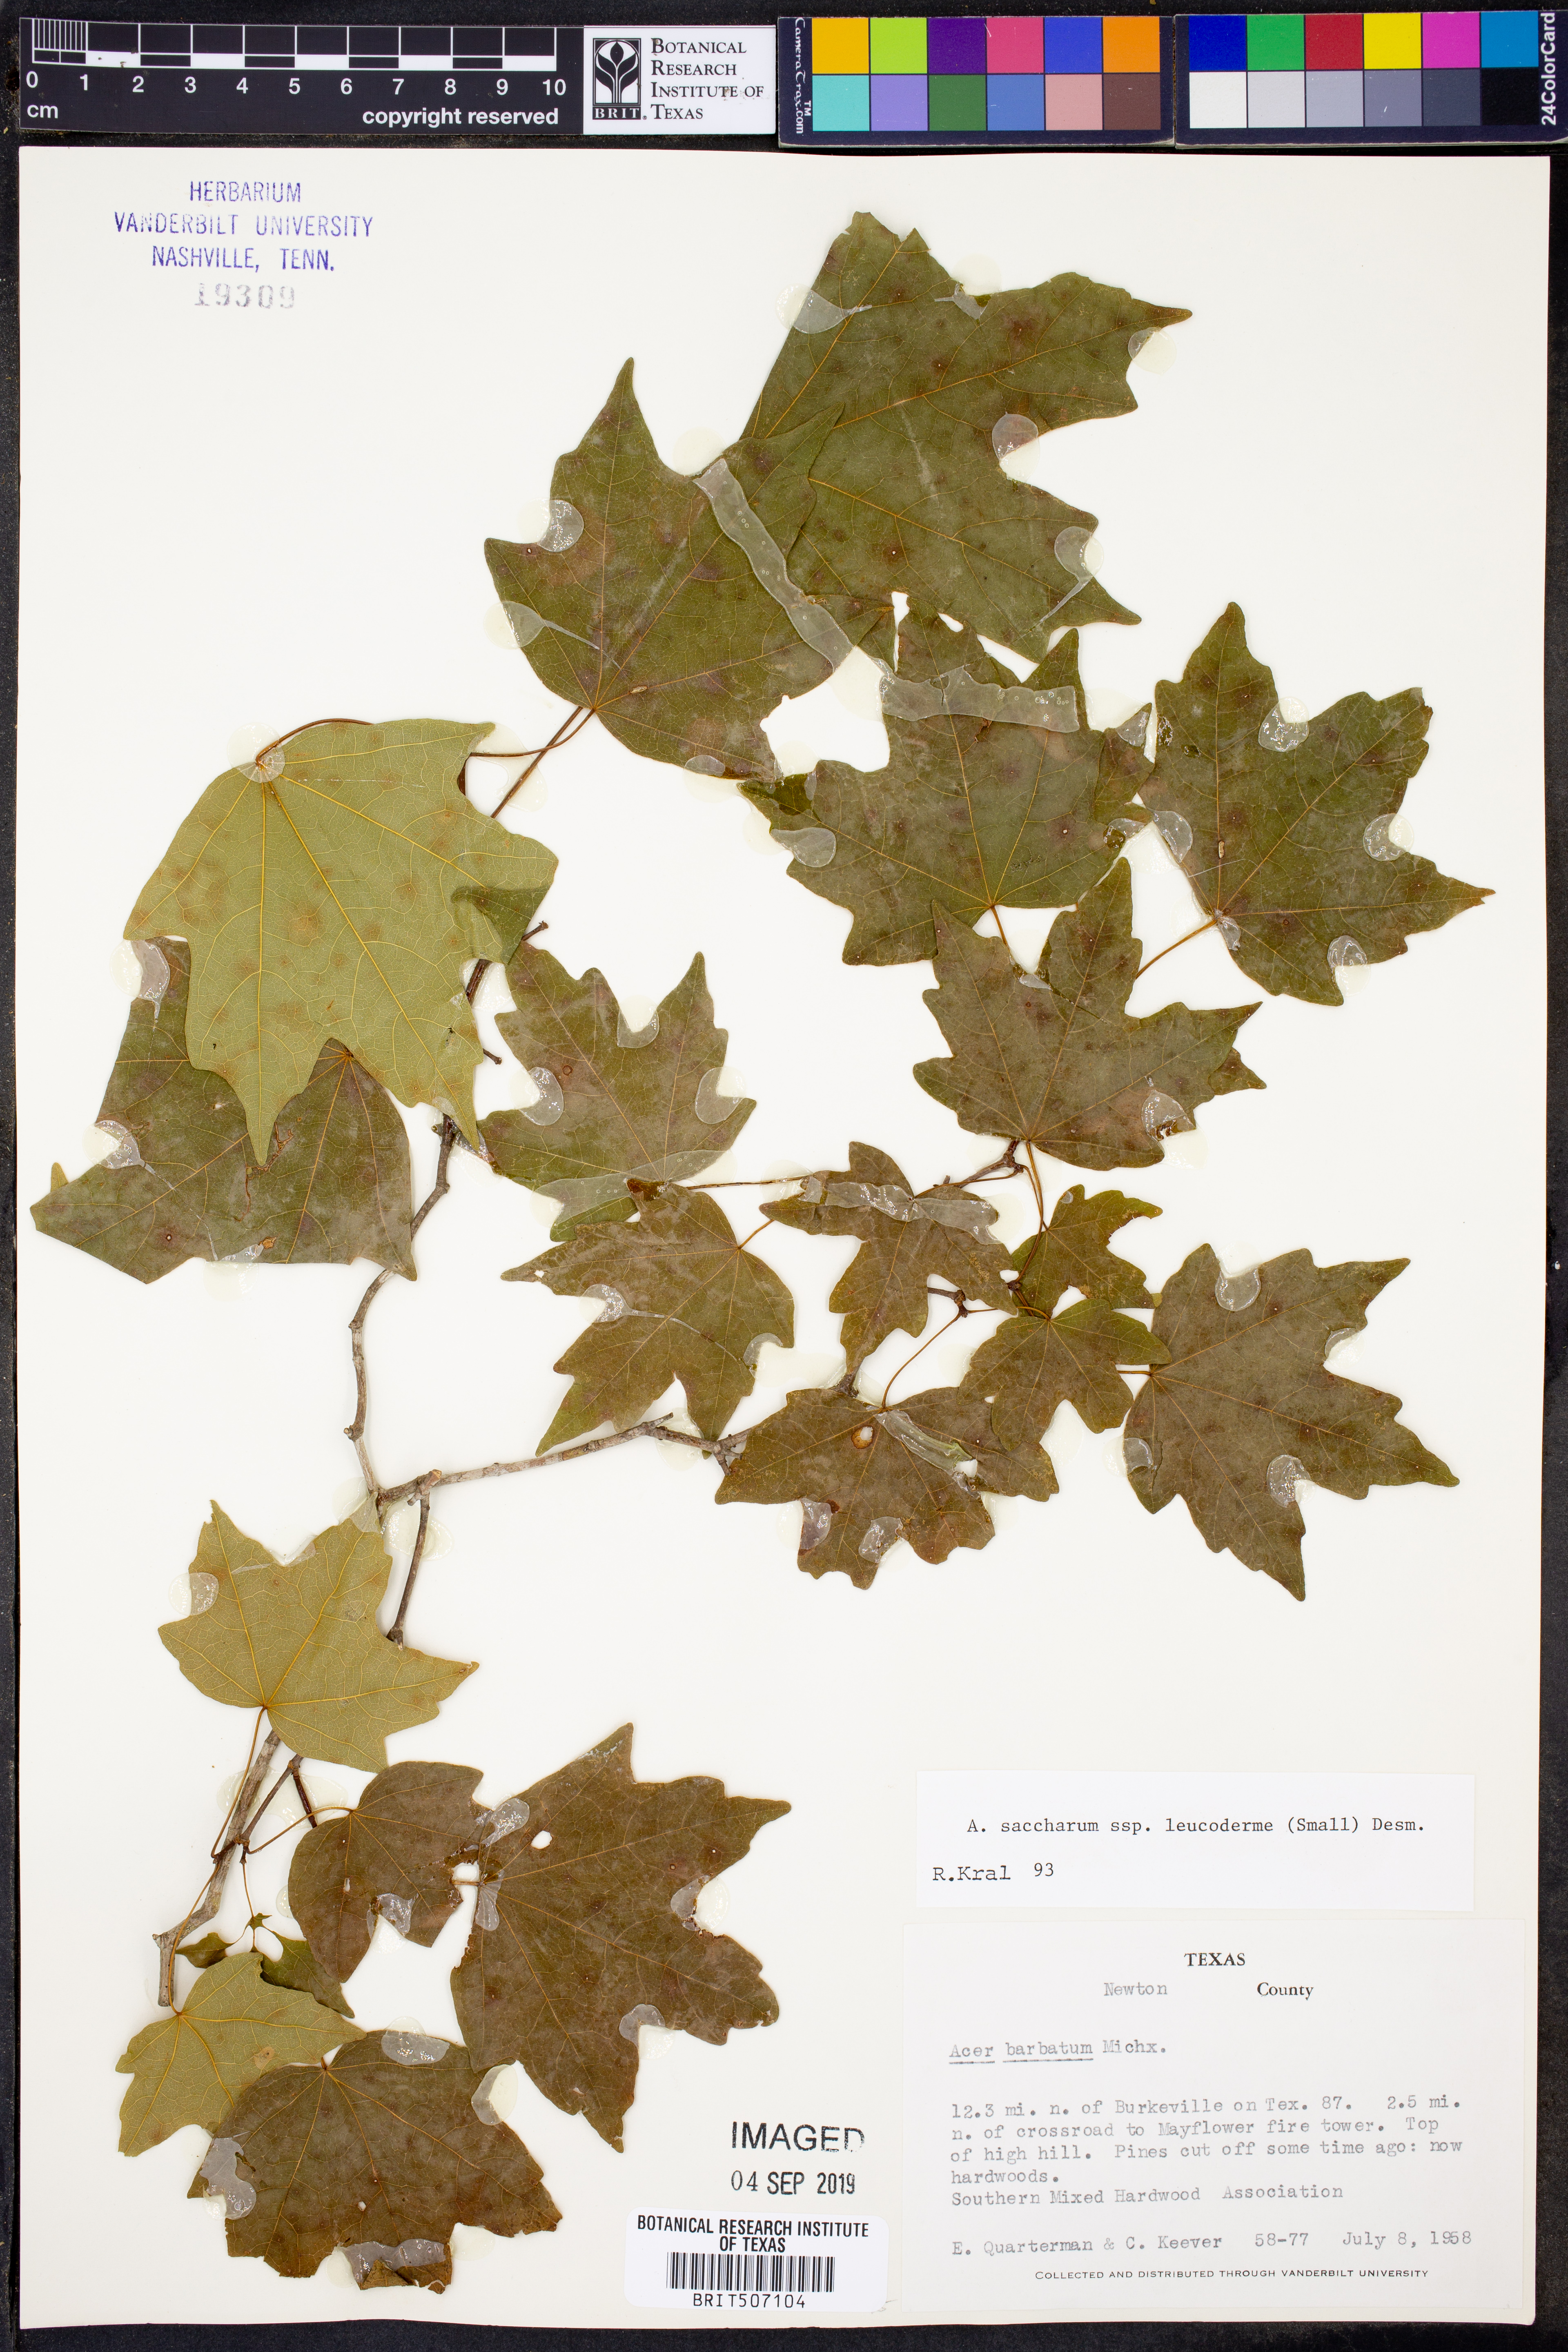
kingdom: Plantae
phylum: Tracheophyta
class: Magnoliopsida
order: Sapindales
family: Sapindaceae
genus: Acer
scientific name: Acer leucoderme
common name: Chalk maple
